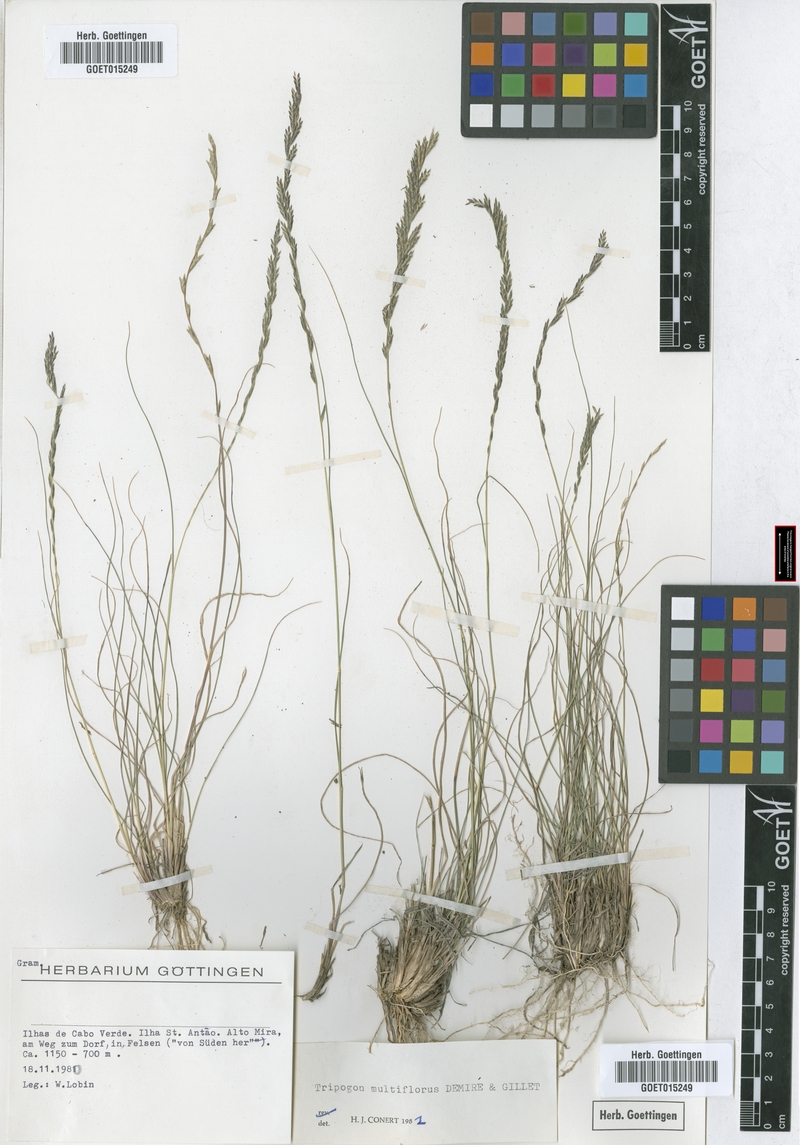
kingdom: Plantae
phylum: Tracheophyta
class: Liliopsida
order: Poales
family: Poaceae
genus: Tripogon
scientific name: Tripogon multiflorus
